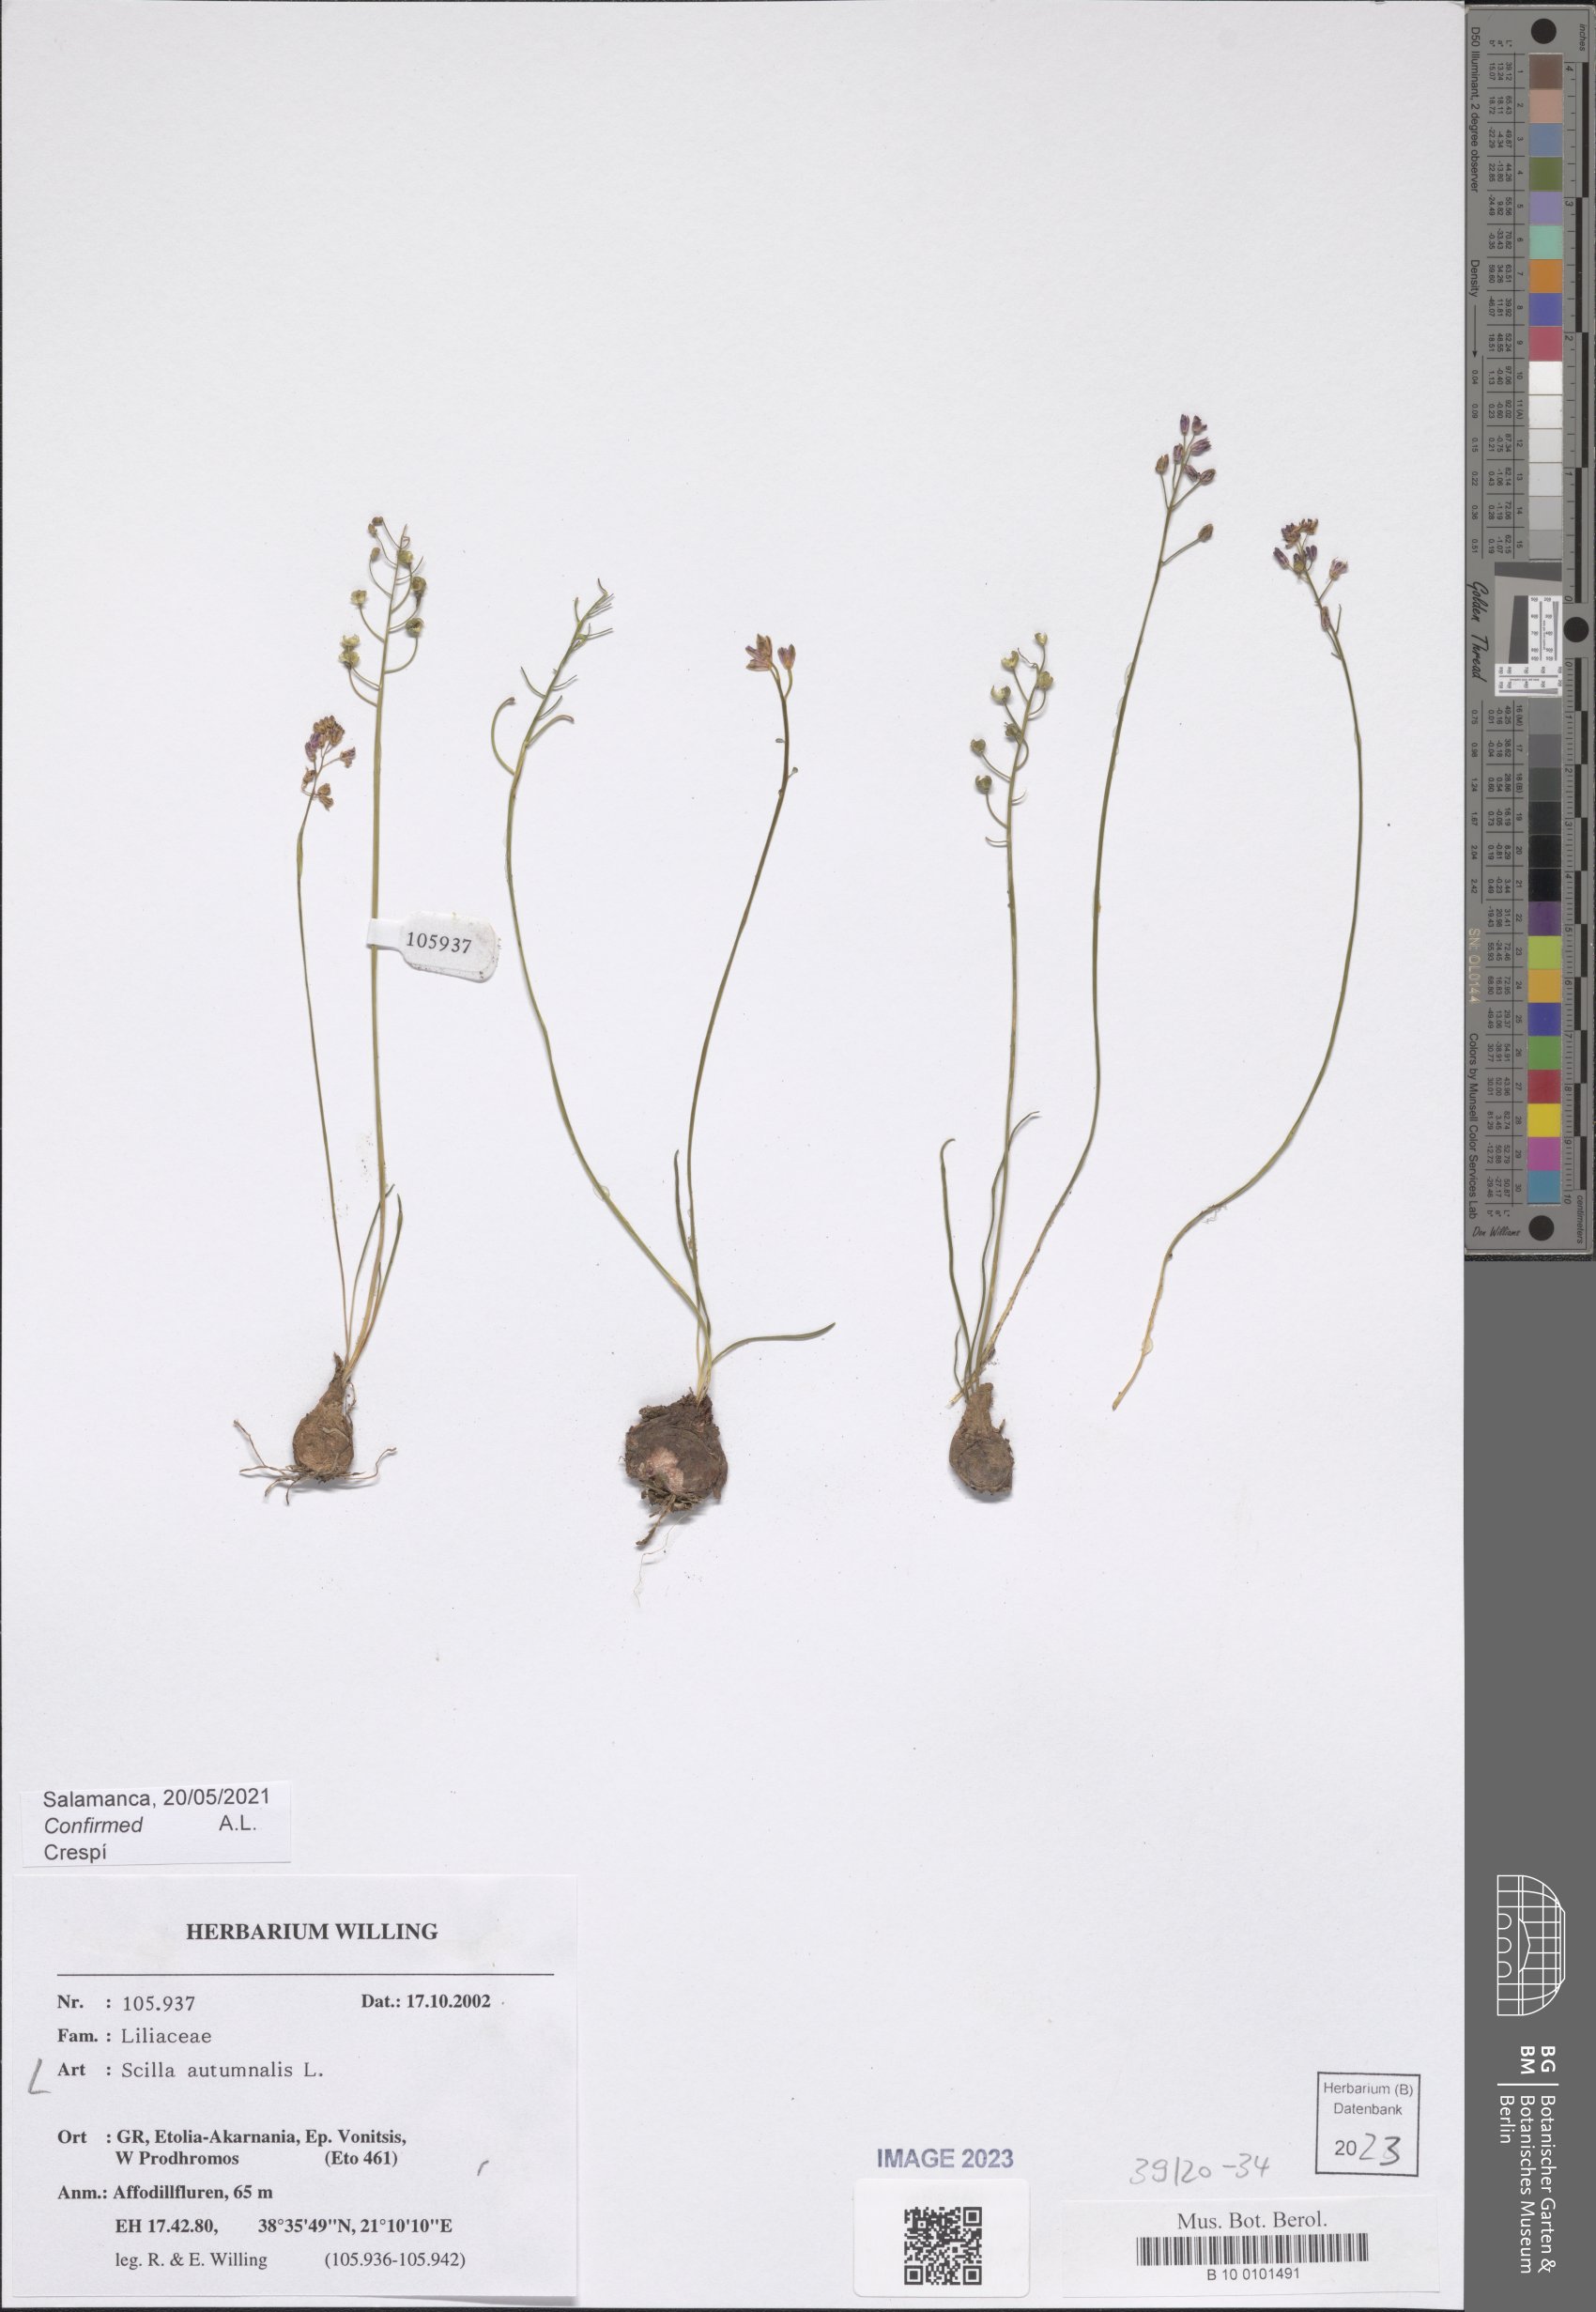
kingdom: Plantae
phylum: Tracheophyta
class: Liliopsida
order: Asparagales
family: Asparagaceae
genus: Prospero
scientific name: Prospero autumnale
